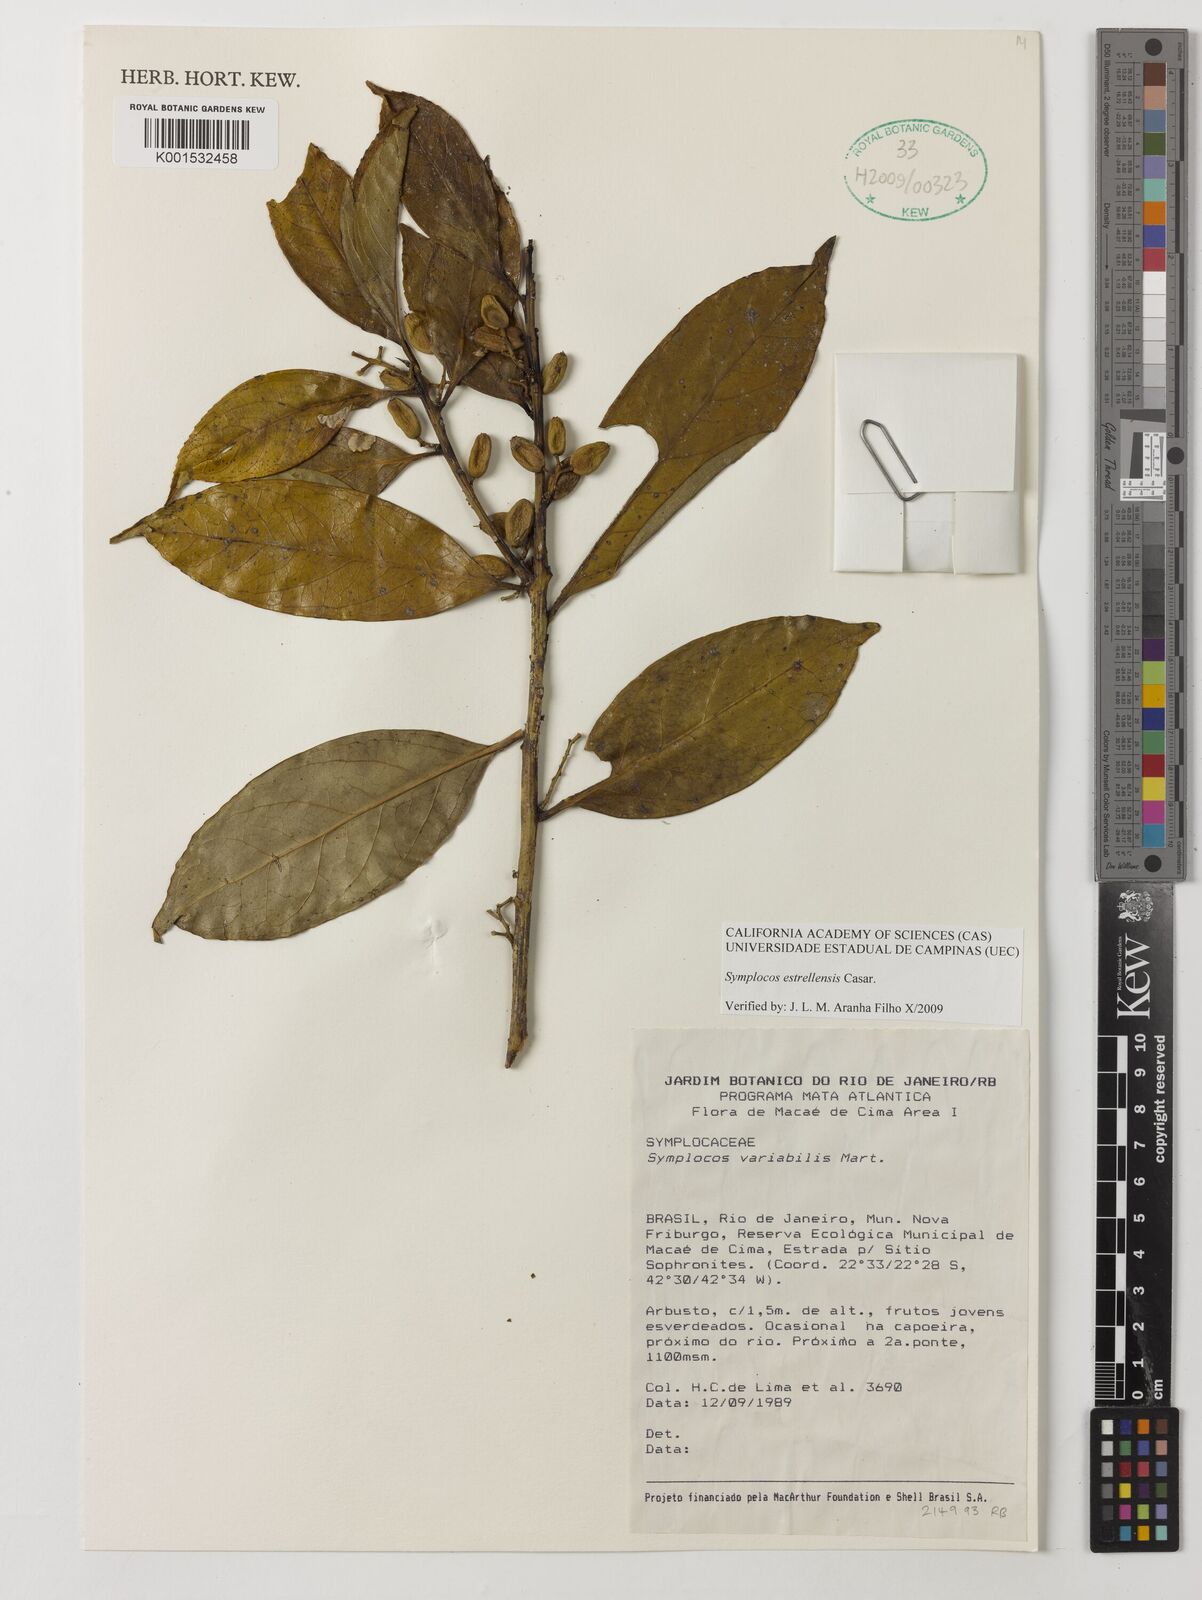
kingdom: Plantae
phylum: Tracheophyta
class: Magnoliopsida
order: Ericales
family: Symplocaceae
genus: Symplocos
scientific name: Symplocos estrellensis
